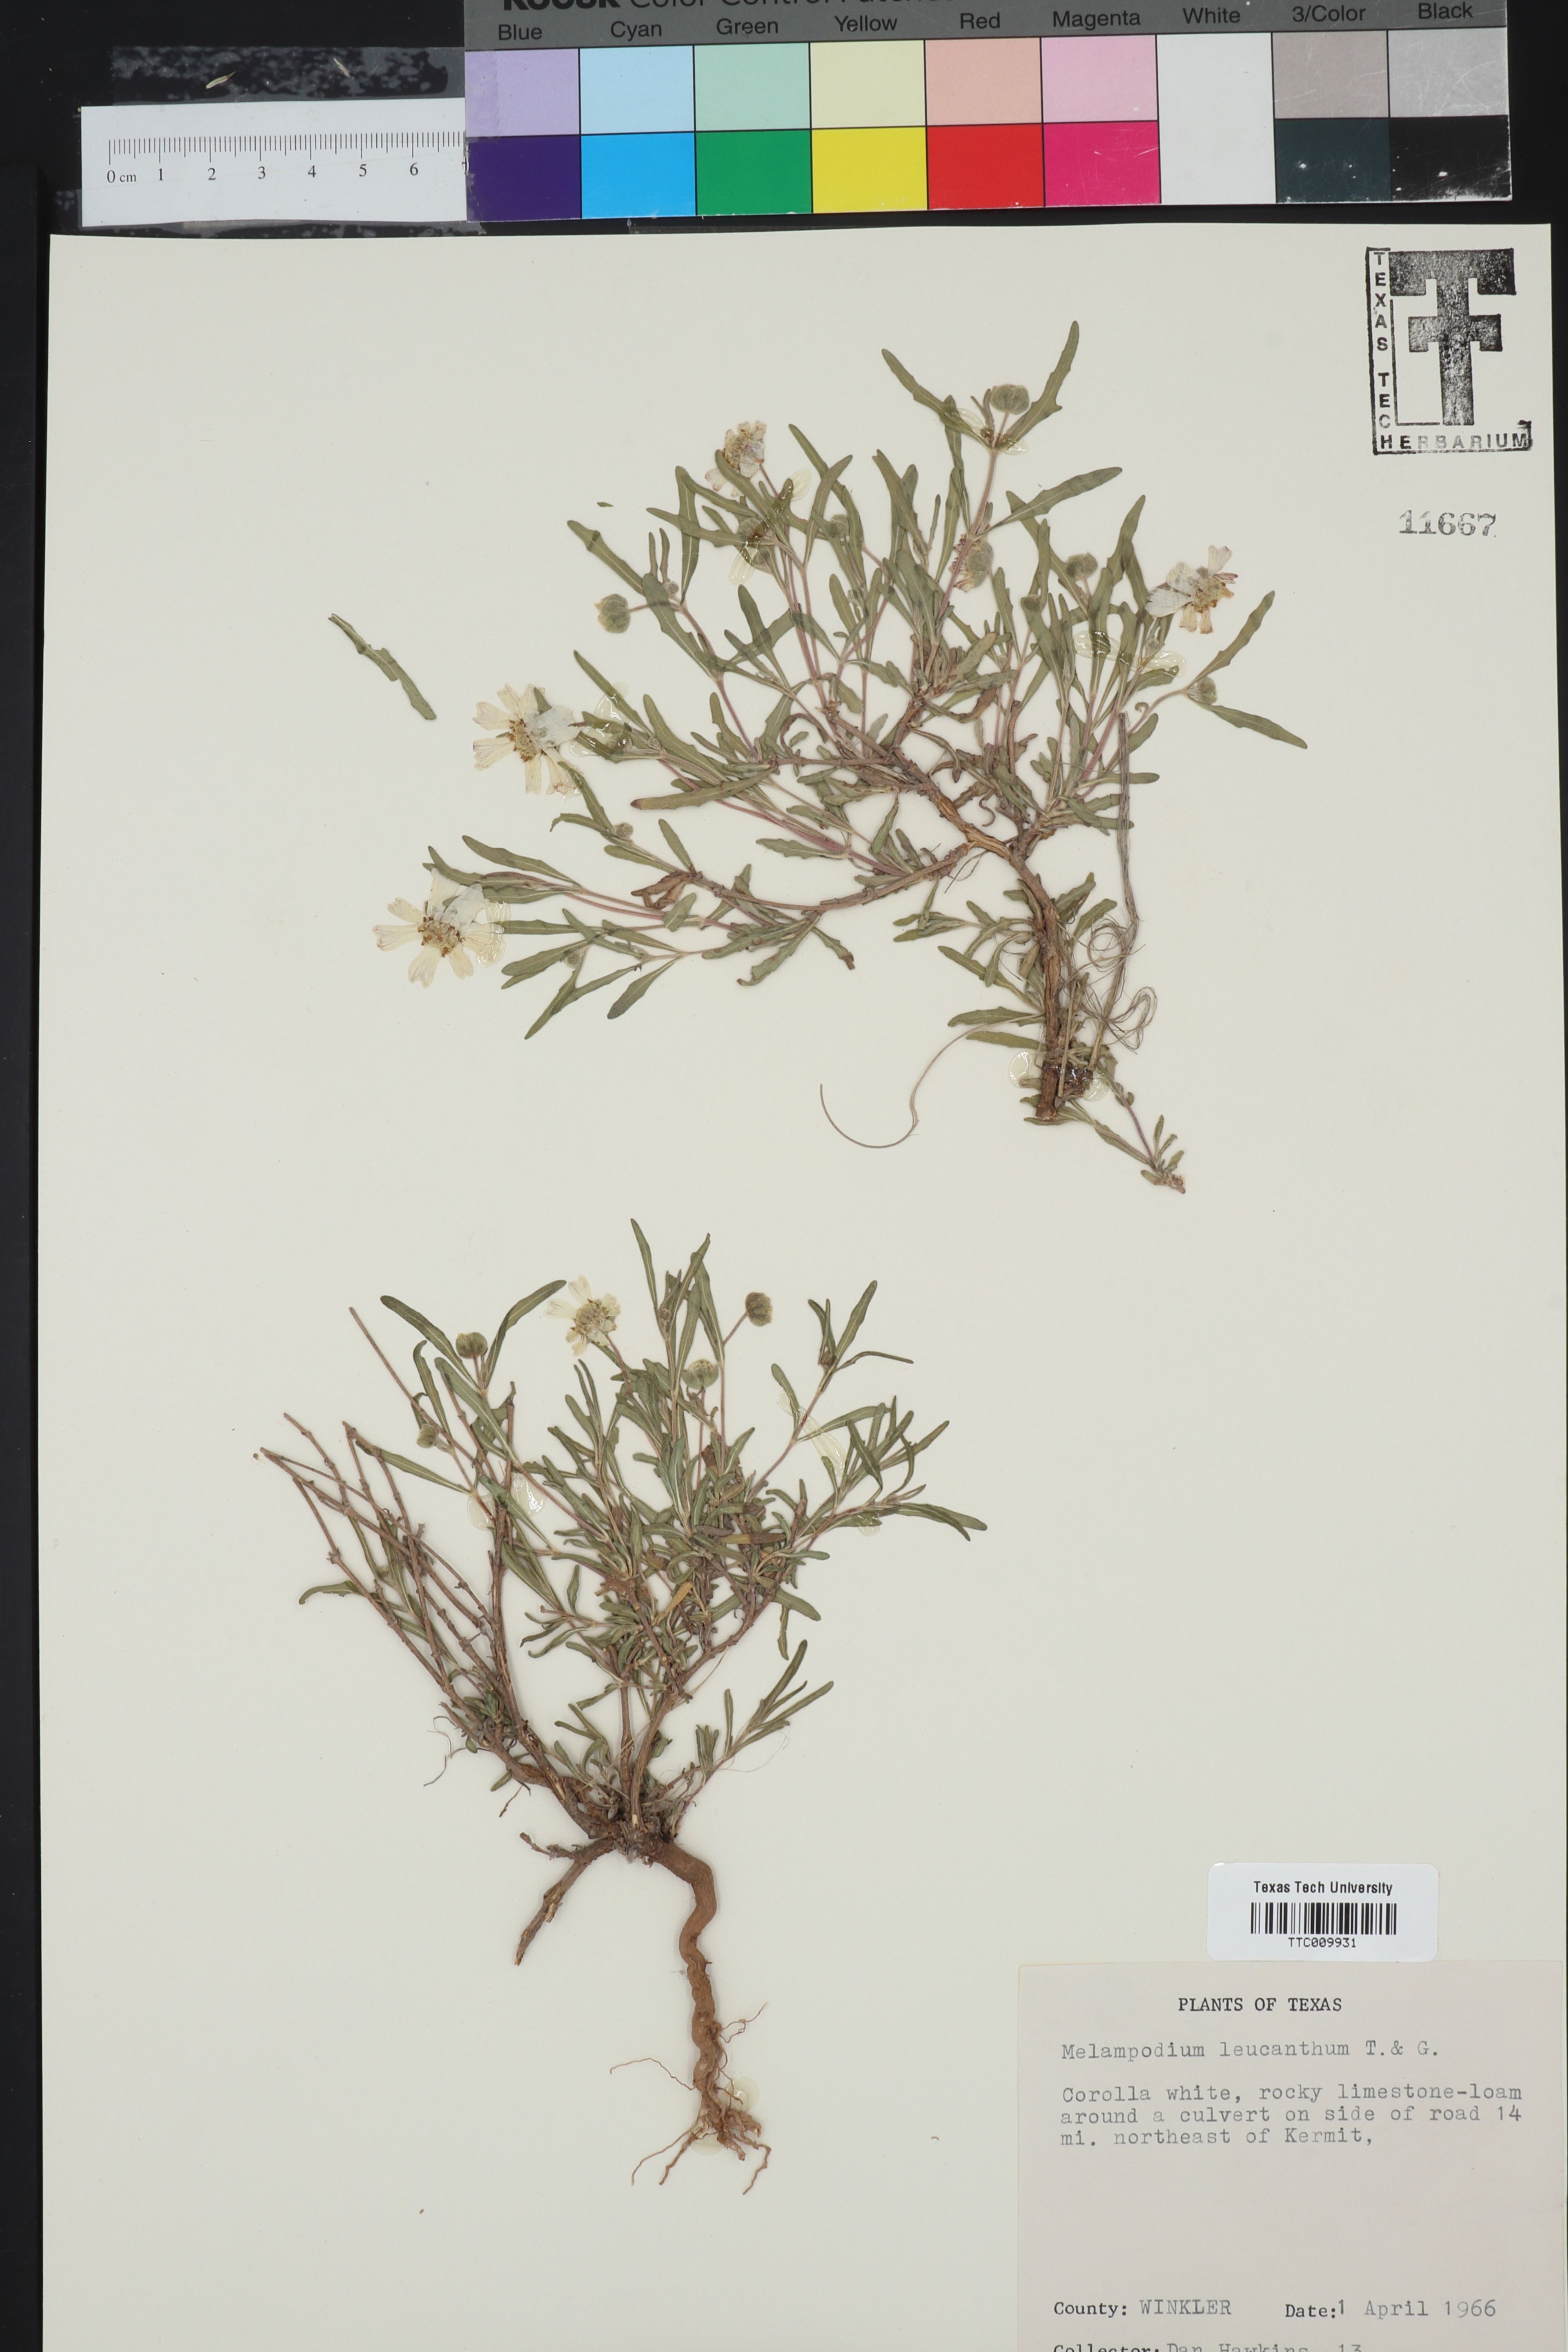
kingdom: Plantae
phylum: Tracheophyta
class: Magnoliopsida
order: Asterales
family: Asteraceae
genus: Melampodium
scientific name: Melampodium leucanthum
